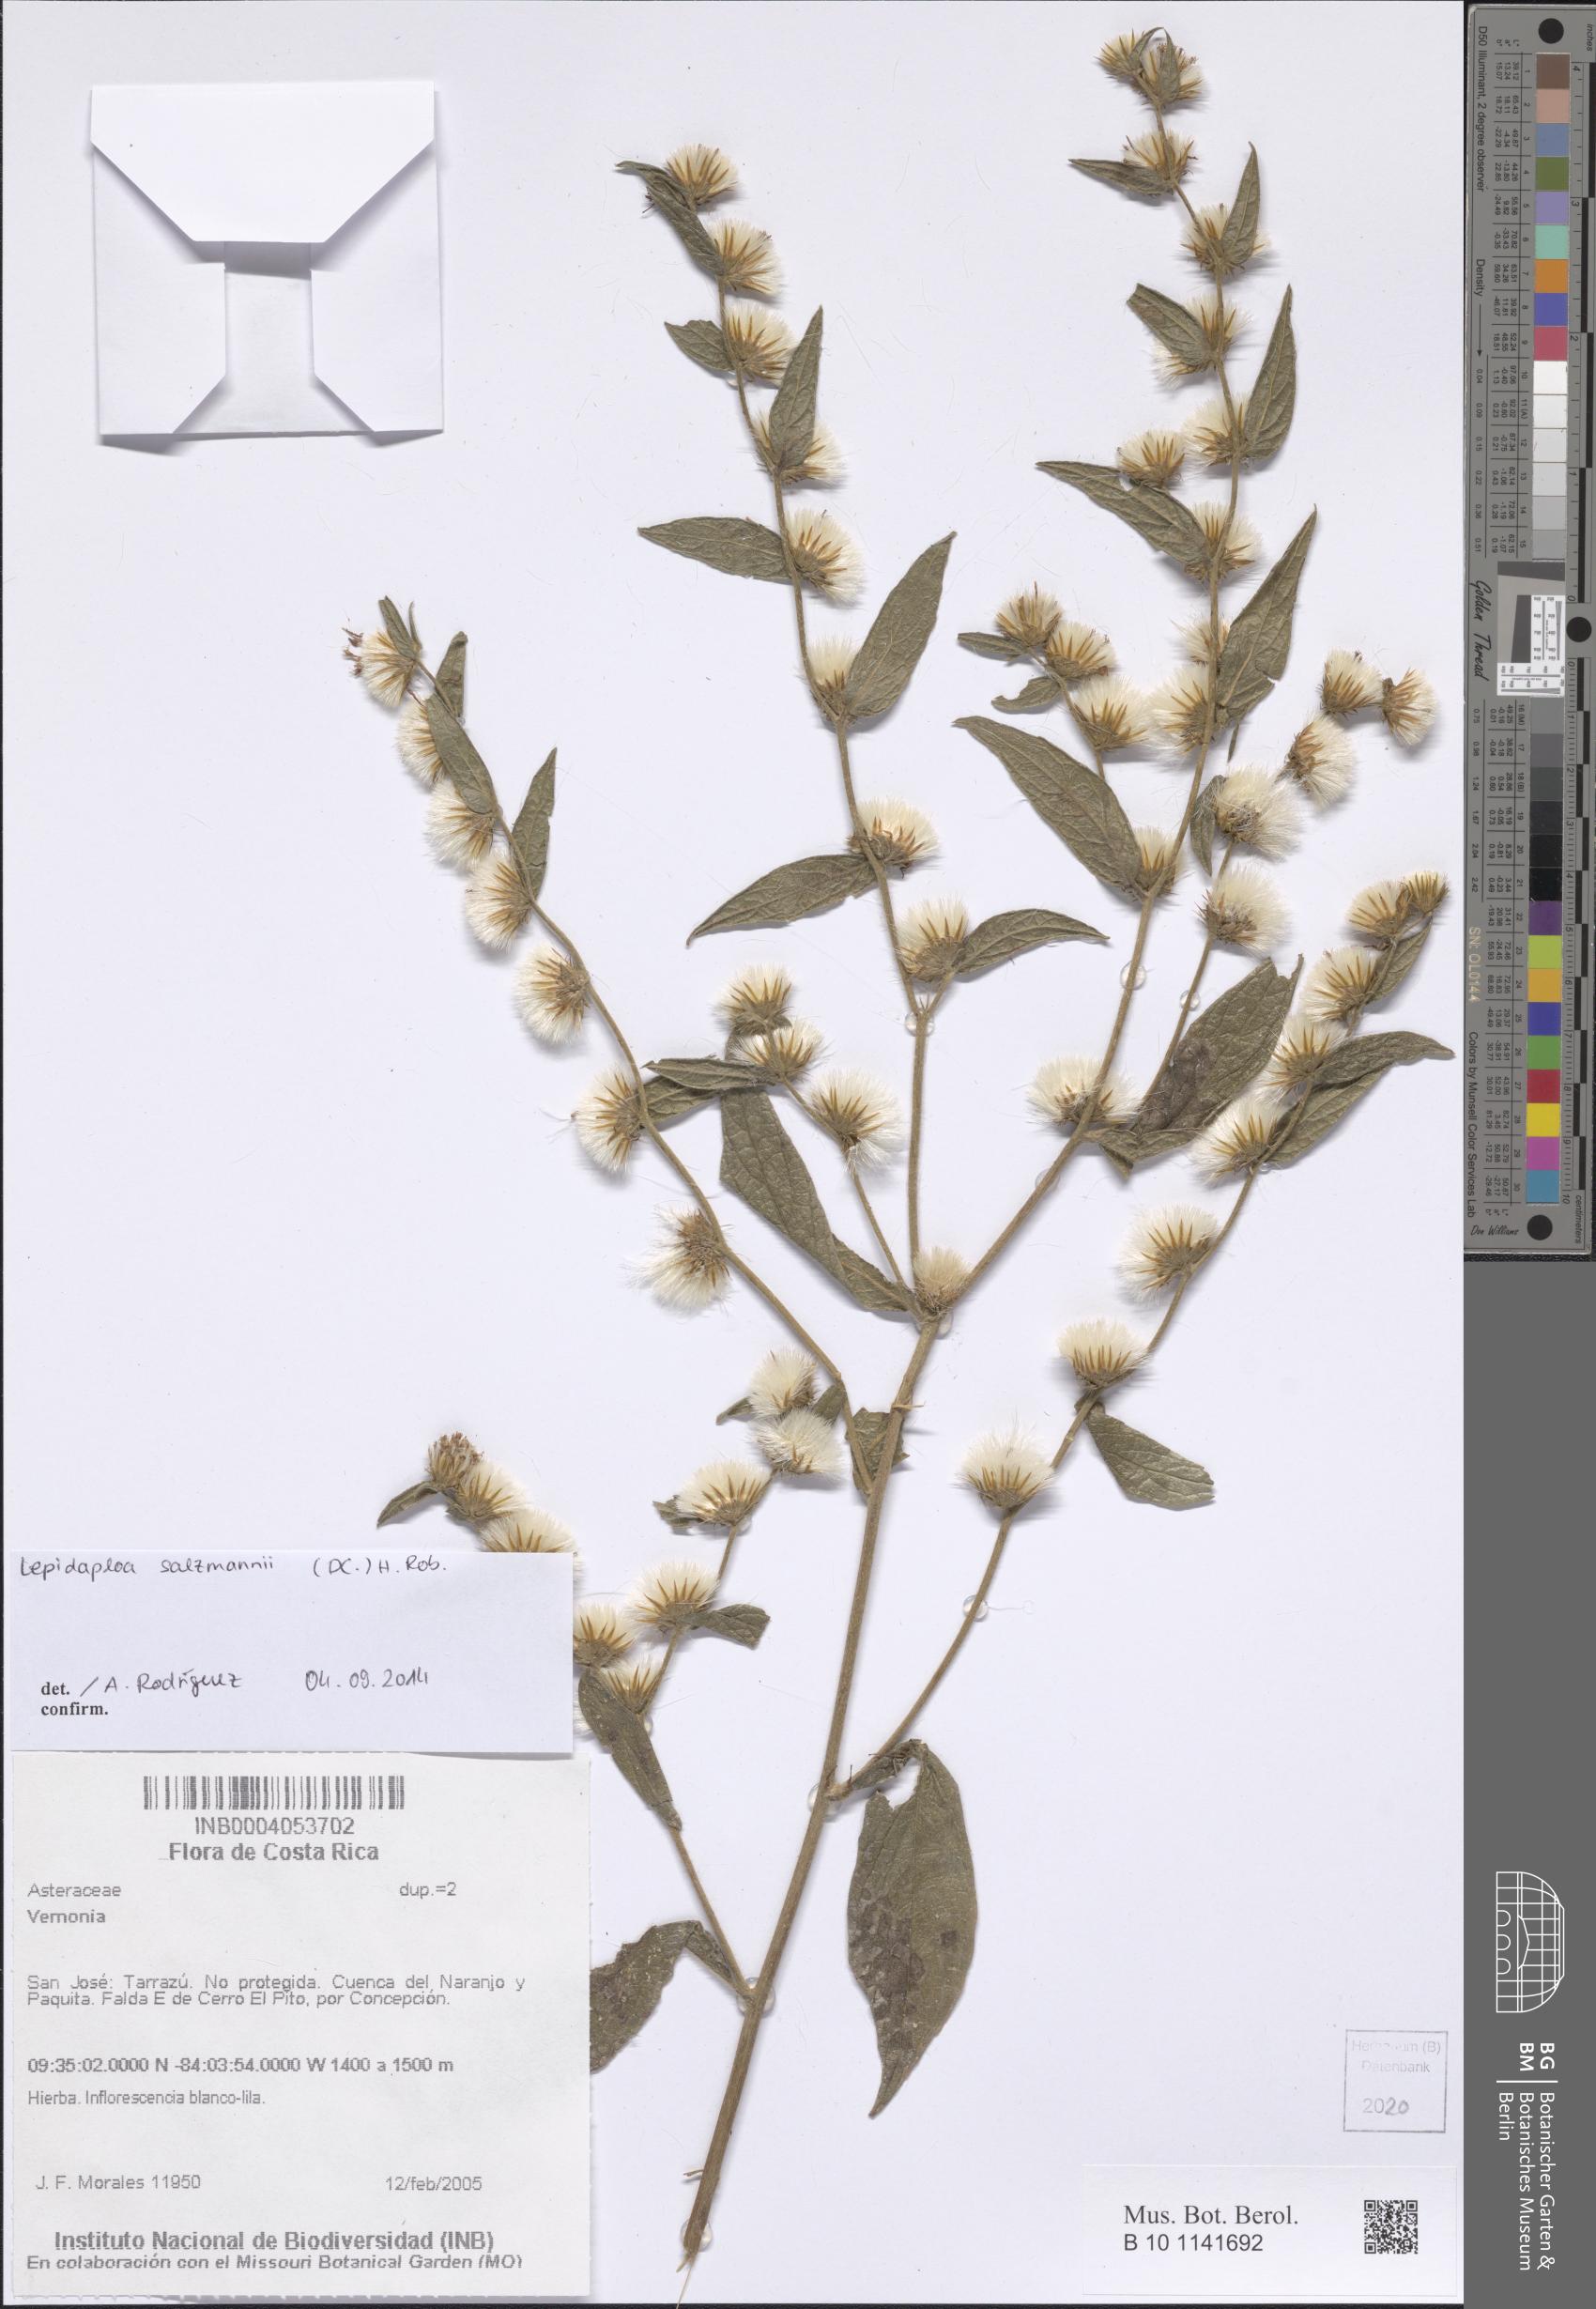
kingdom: Plantae
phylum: Tracheophyta
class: Magnoliopsida
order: Asterales
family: Asteraceae
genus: Lepidaploa
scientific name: Lepidaploa salzmannii
